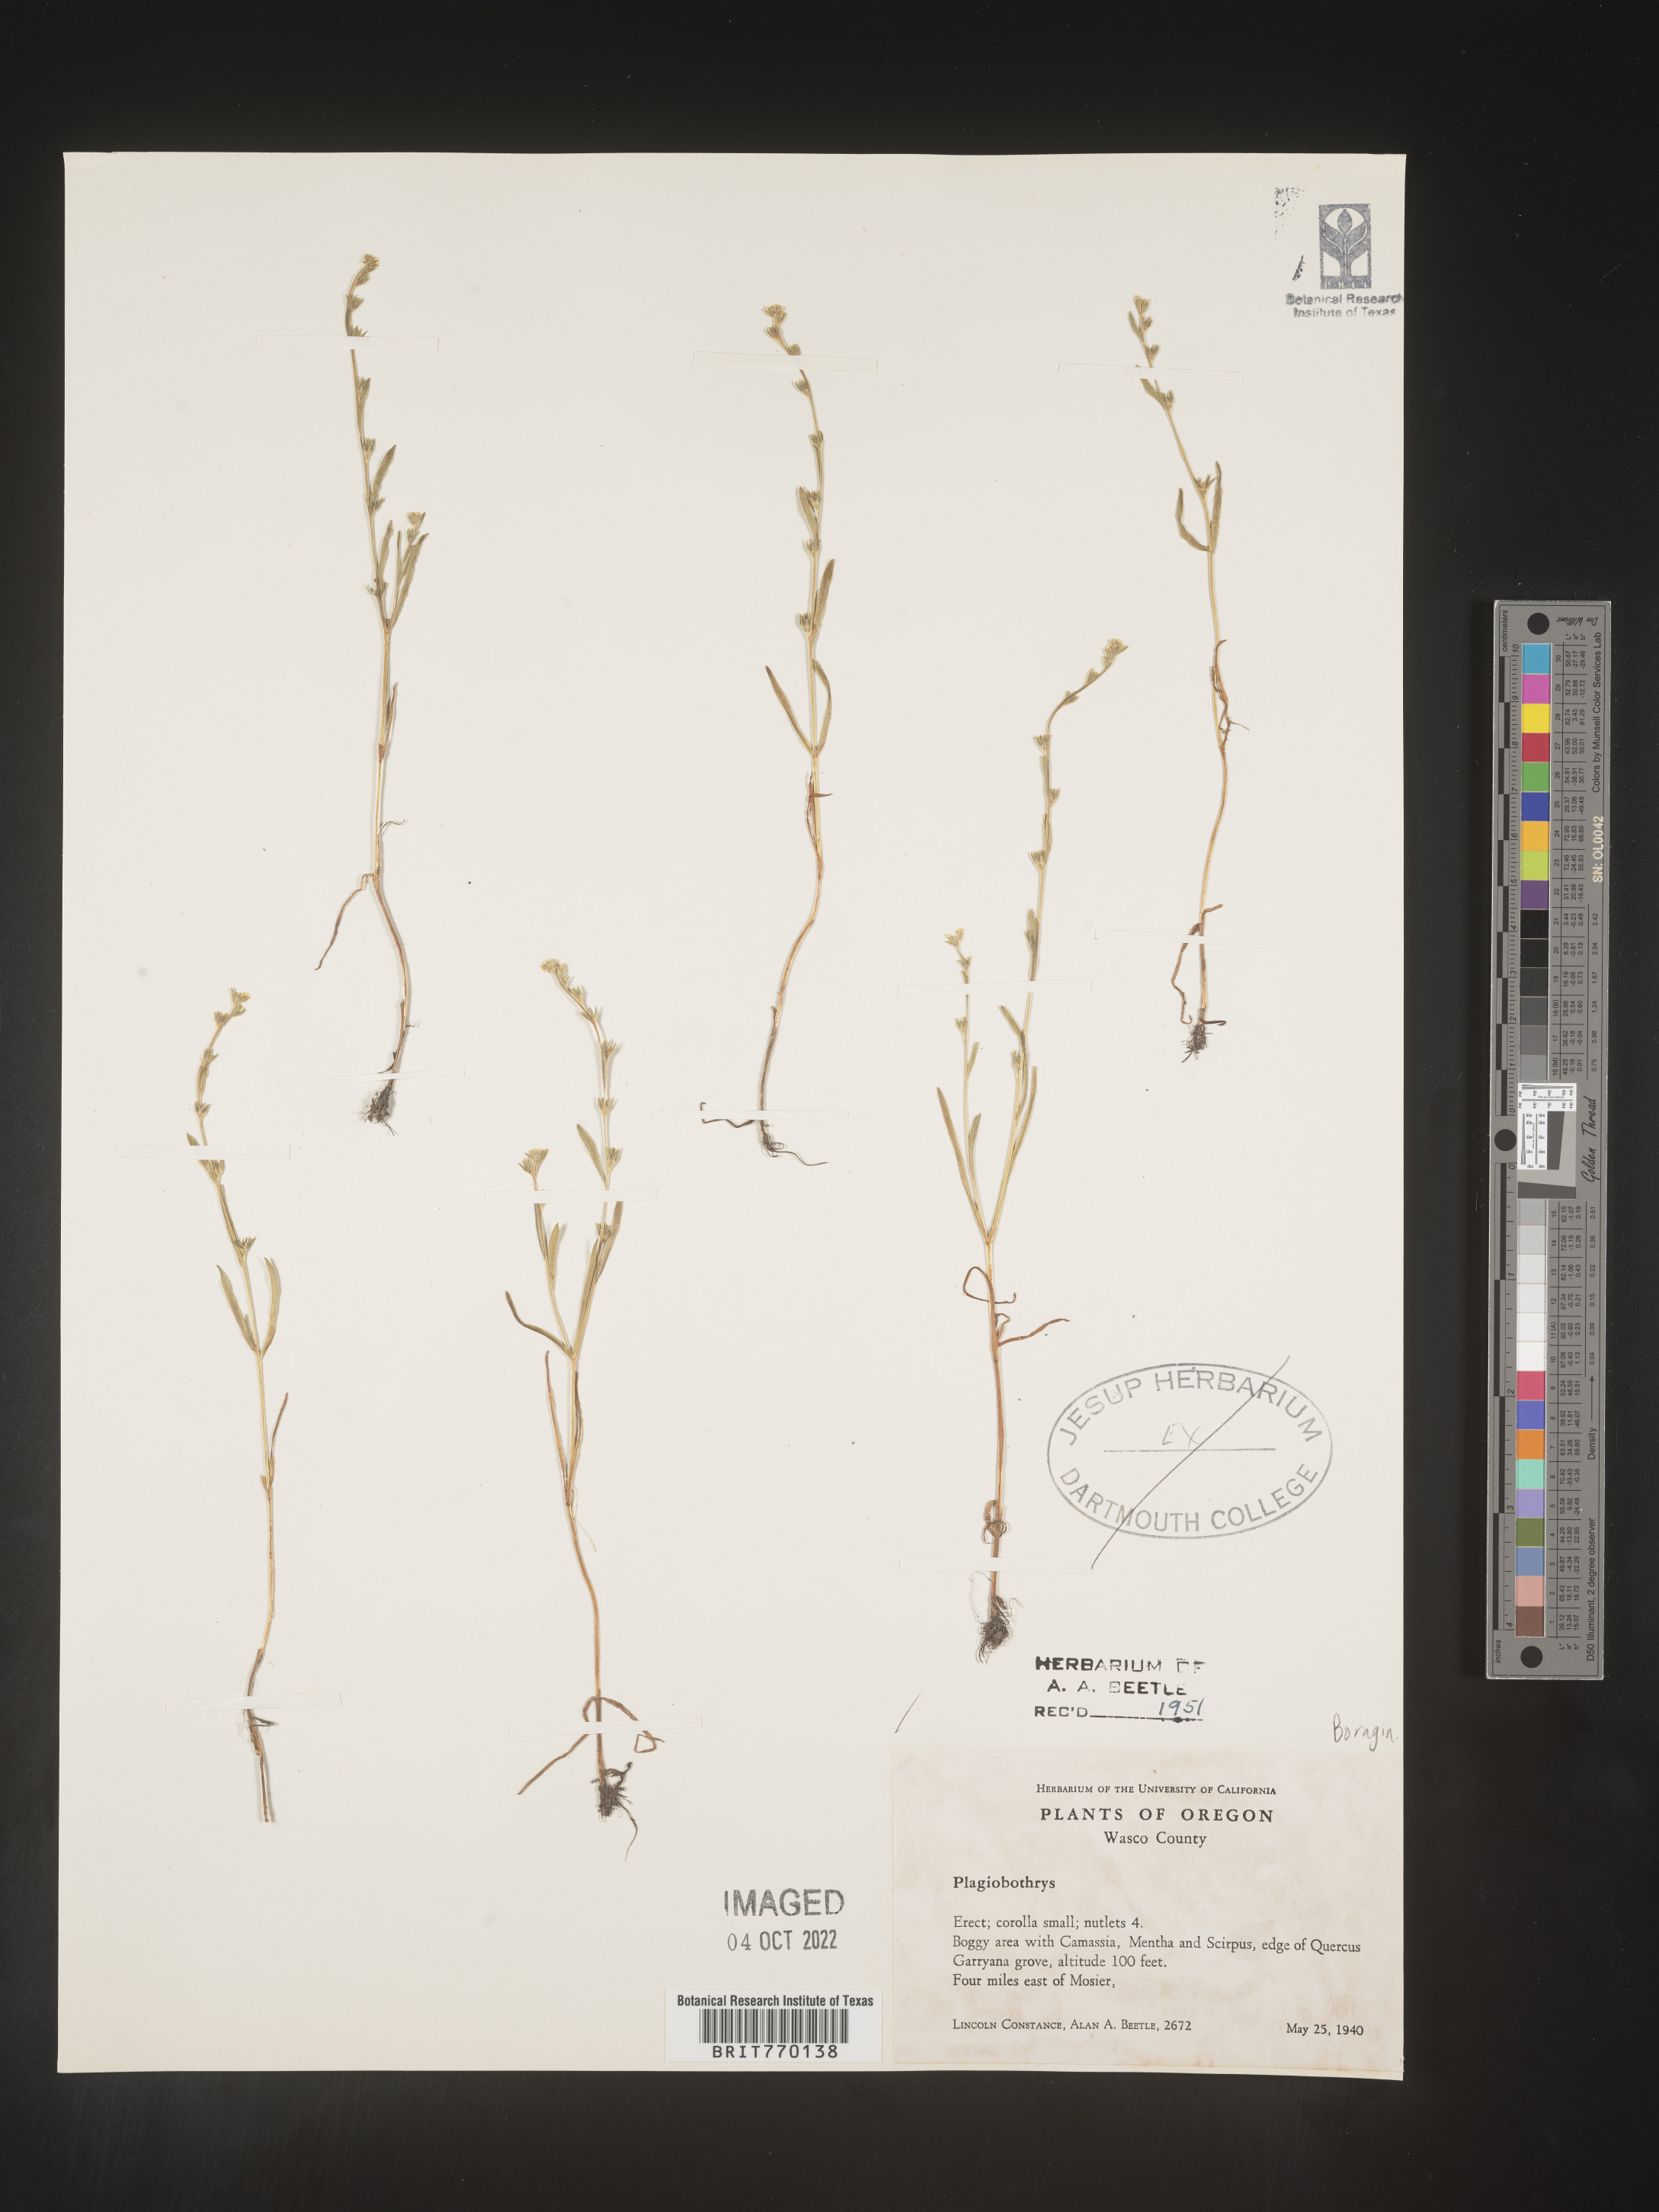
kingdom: Plantae
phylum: Tracheophyta
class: Magnoliopsida
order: Boraginales
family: Boraginaceae
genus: Plagiobothrys
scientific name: Plagiobothrys
